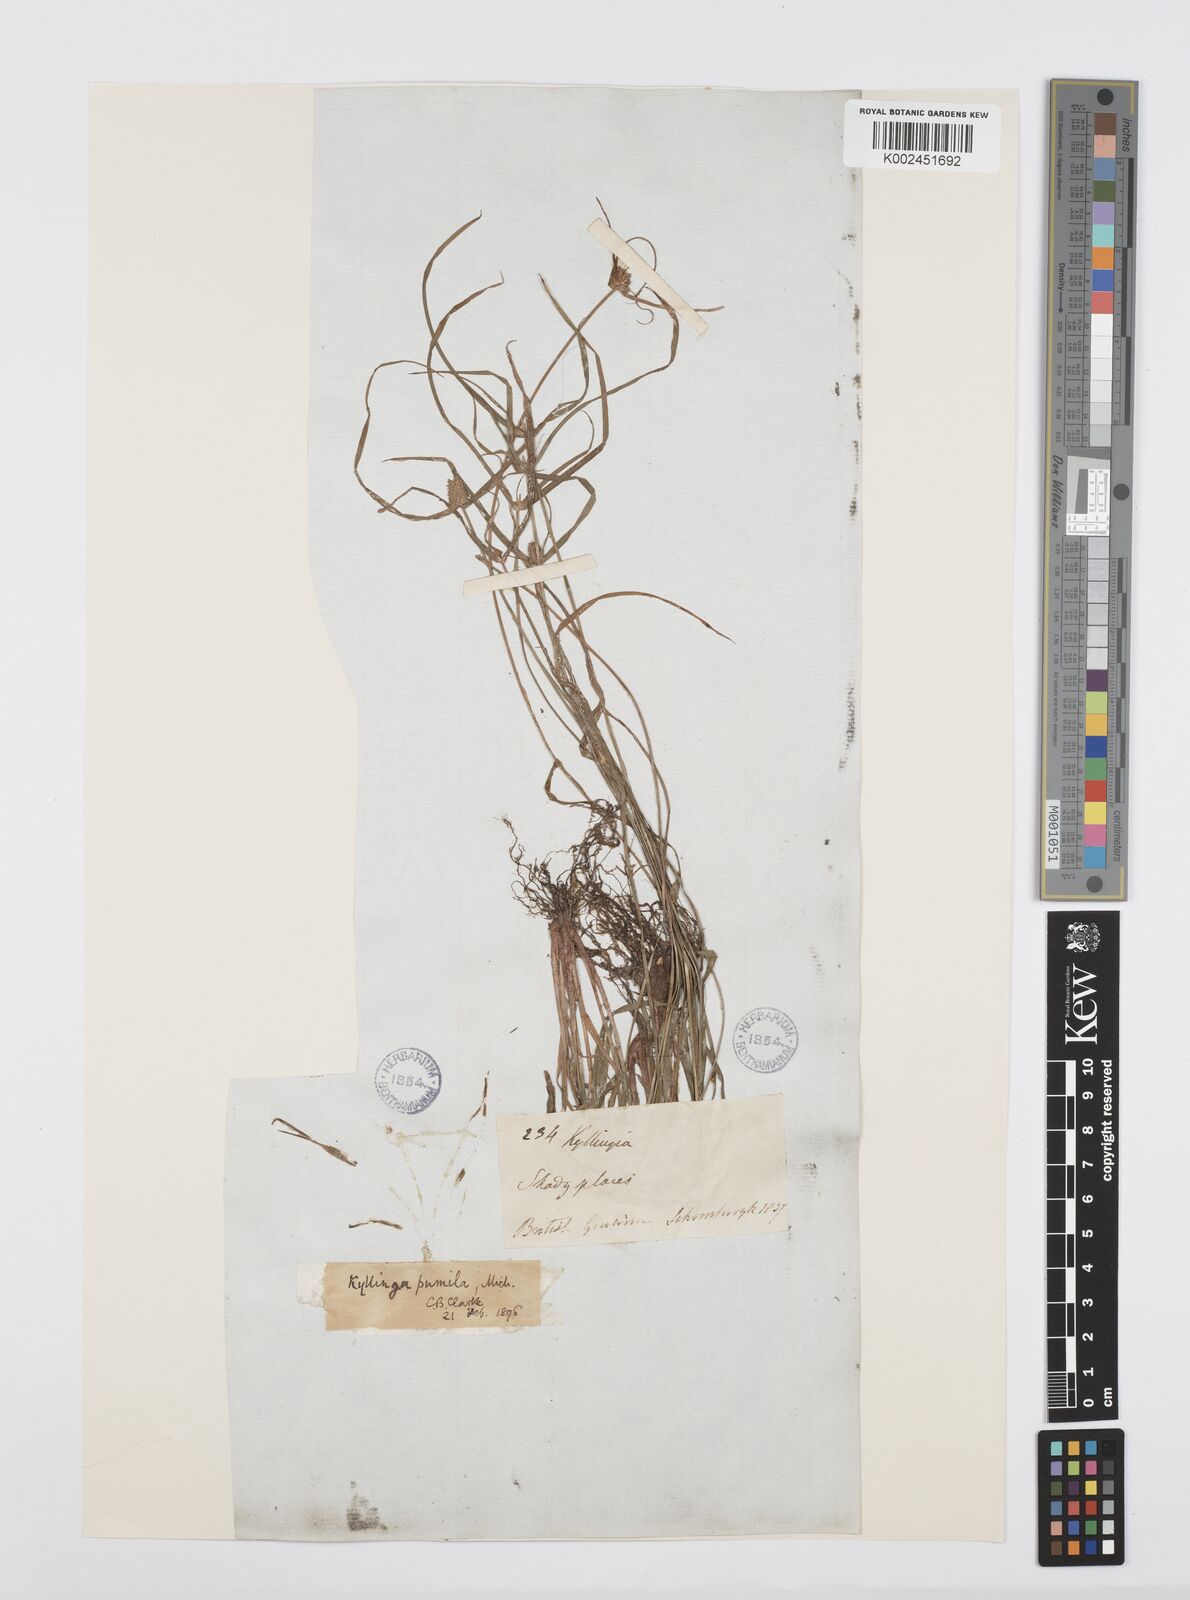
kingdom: Plantae
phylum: Tracheophyta
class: Liliopsida
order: Poales
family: Cyperaceae
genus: Cyperus
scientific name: Cyperus
